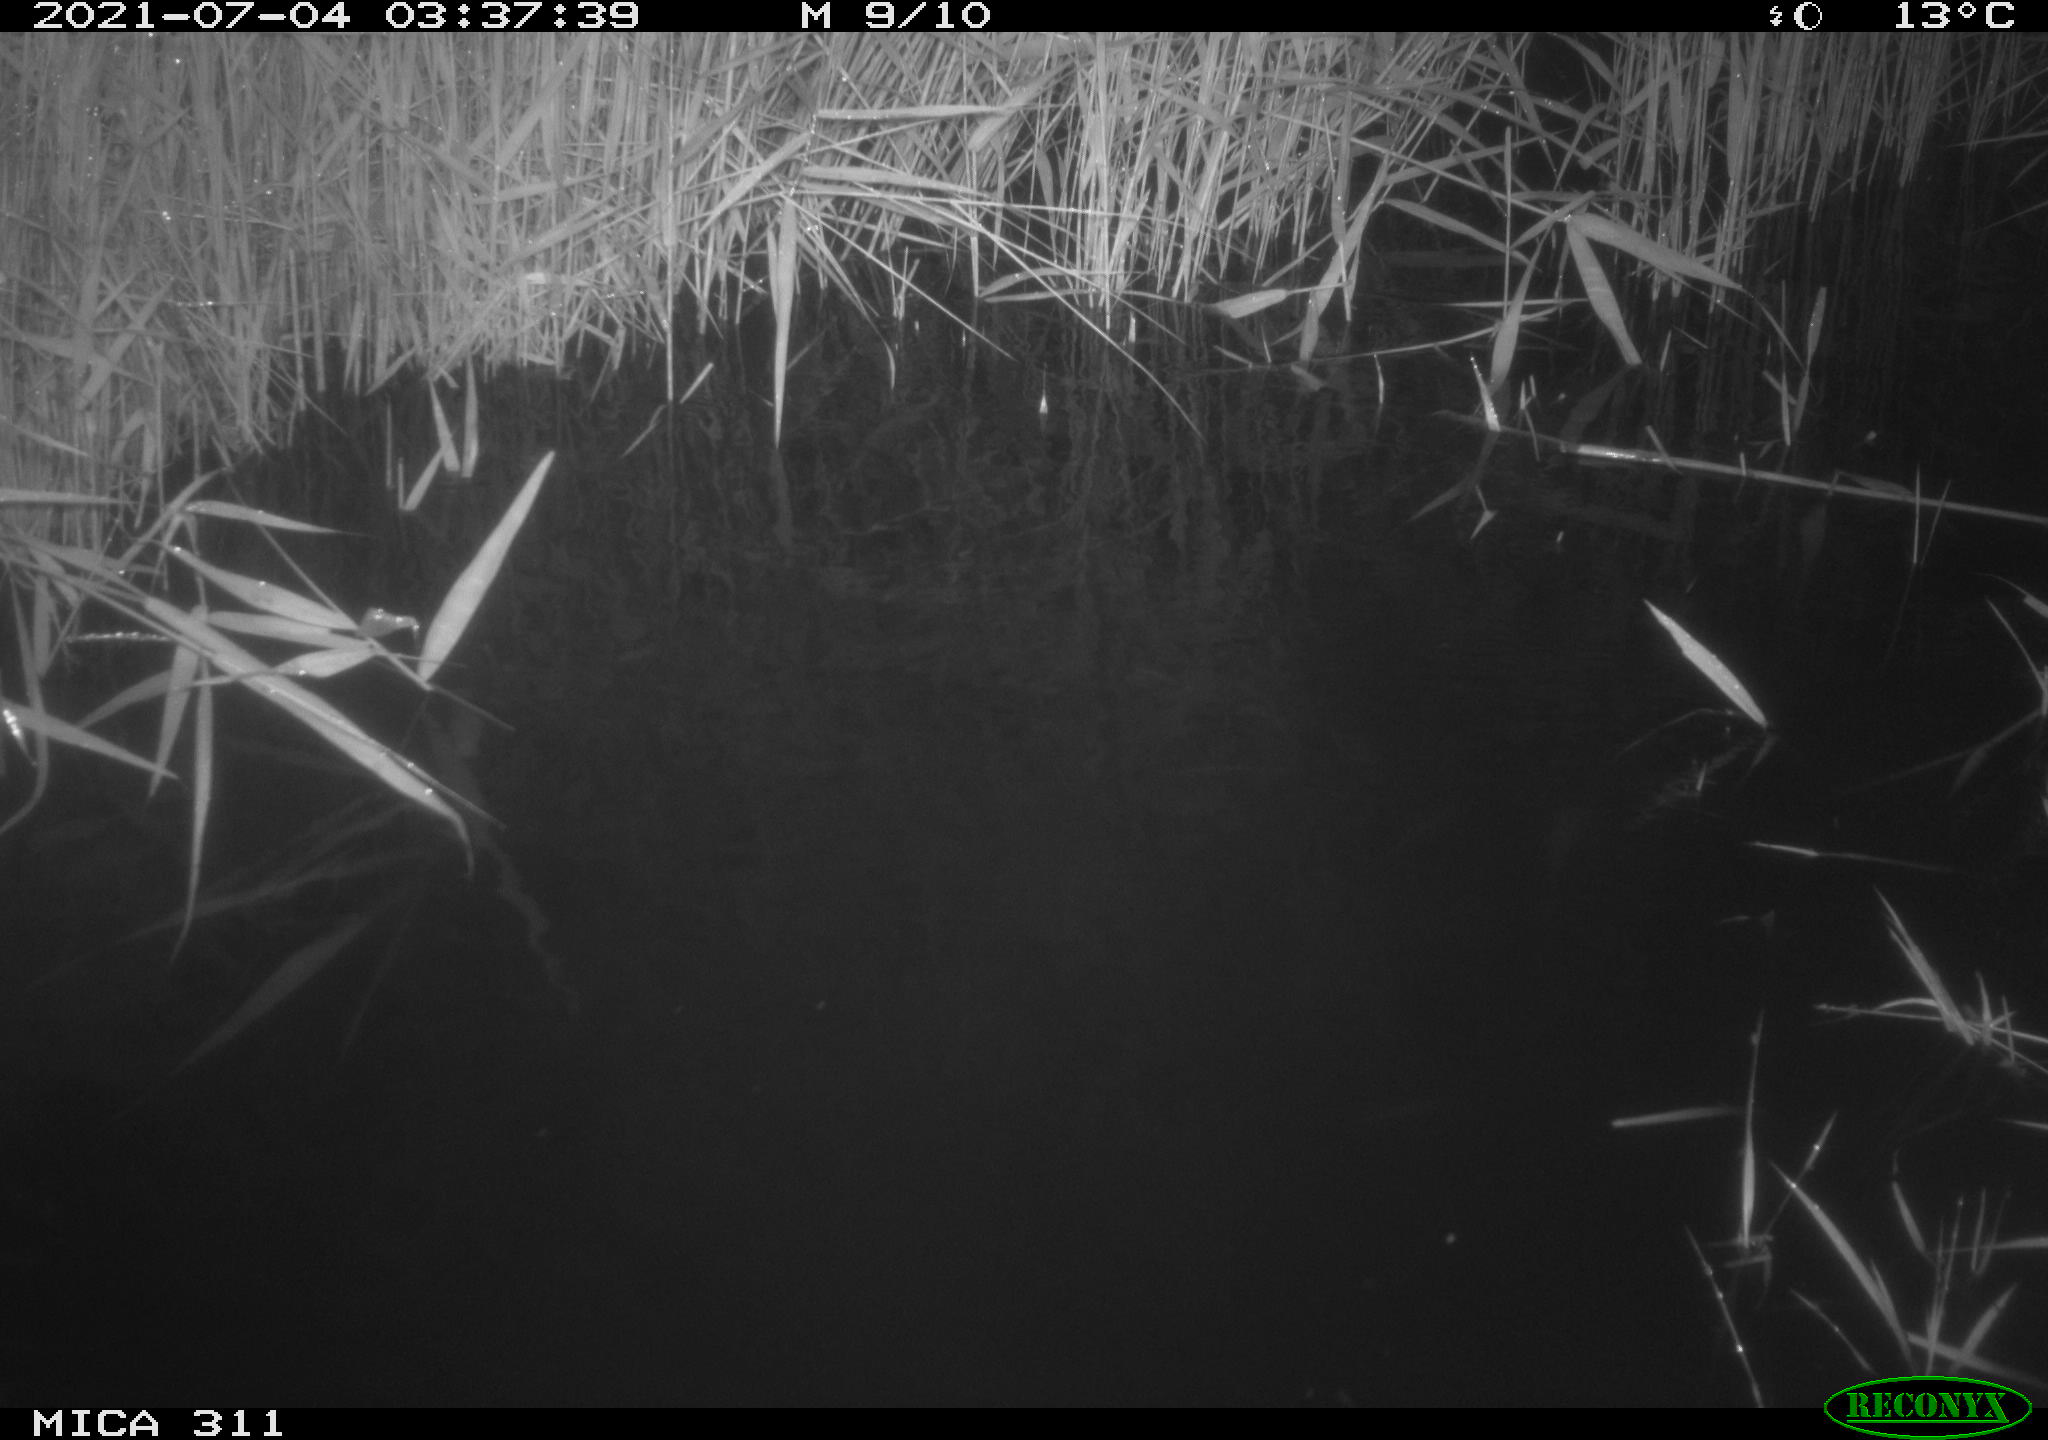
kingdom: Animalia
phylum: Chordata
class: Aves
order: Anseriformes
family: Anatidae
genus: Anas
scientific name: Anas
